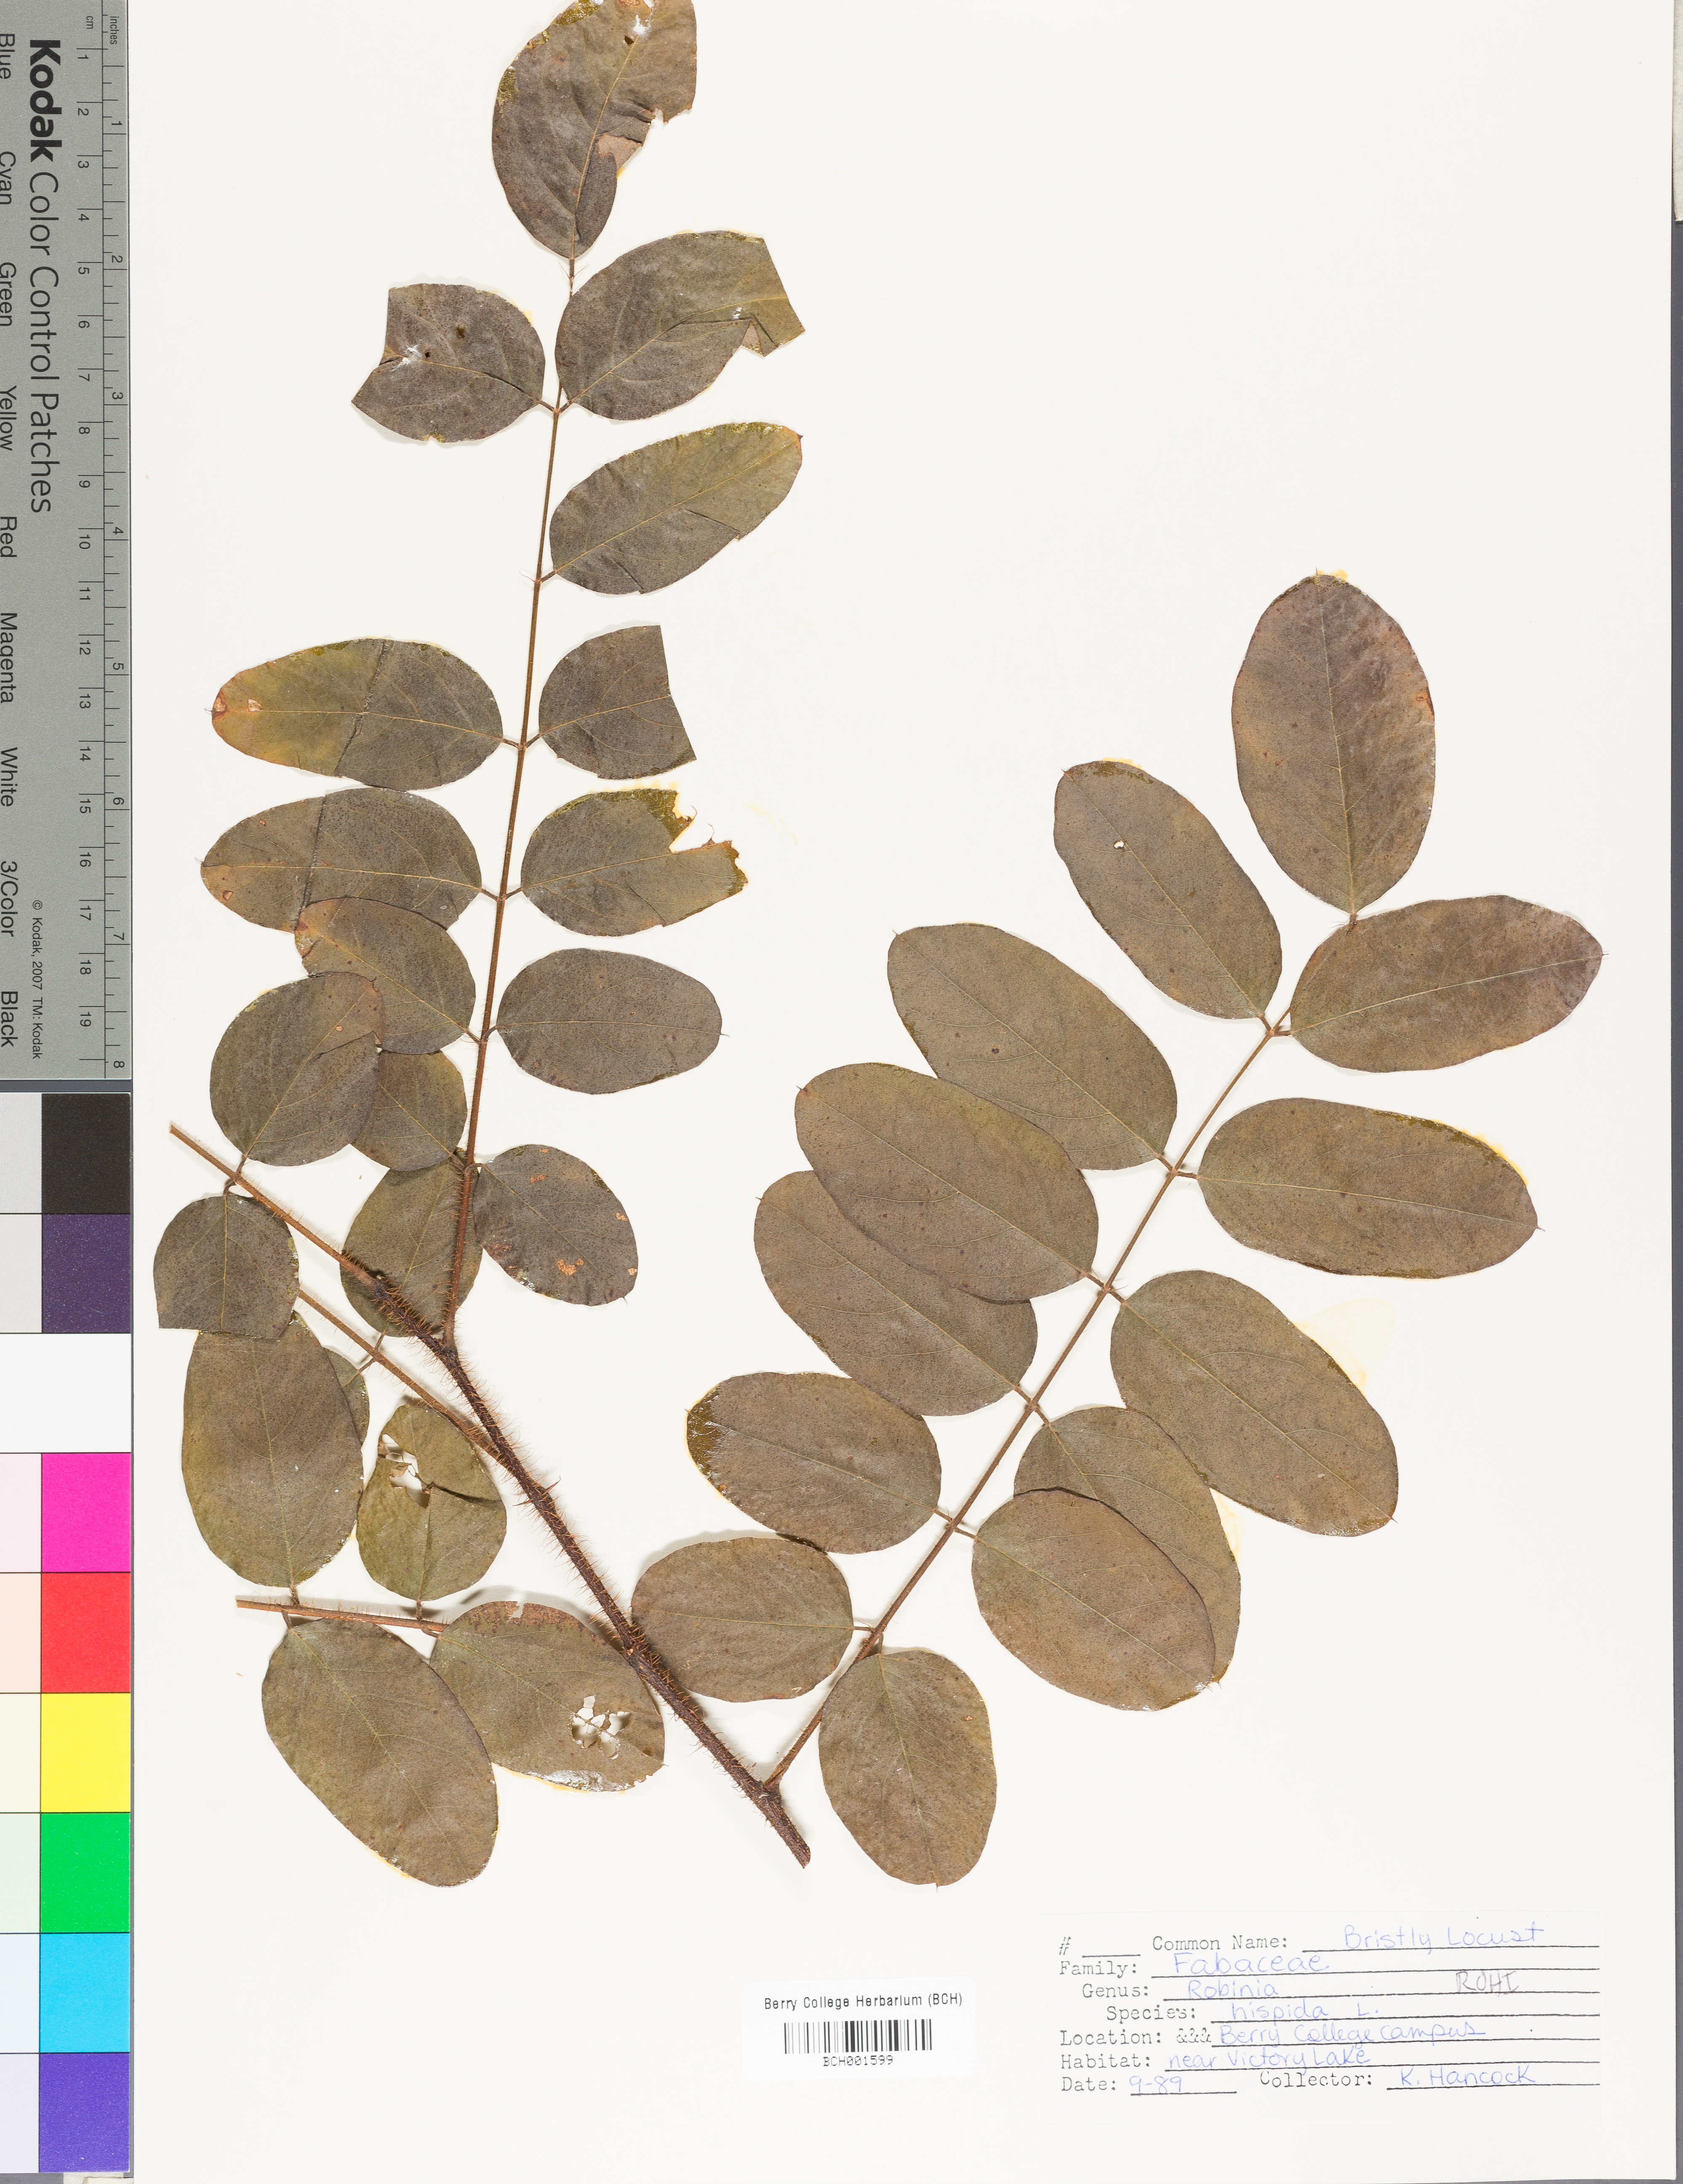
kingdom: Plantae
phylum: Tracheophyta
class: Magnoliopsida
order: Fabales
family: Fabaceae
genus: Robinia
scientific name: Robinia hispida
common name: Bristly locust
